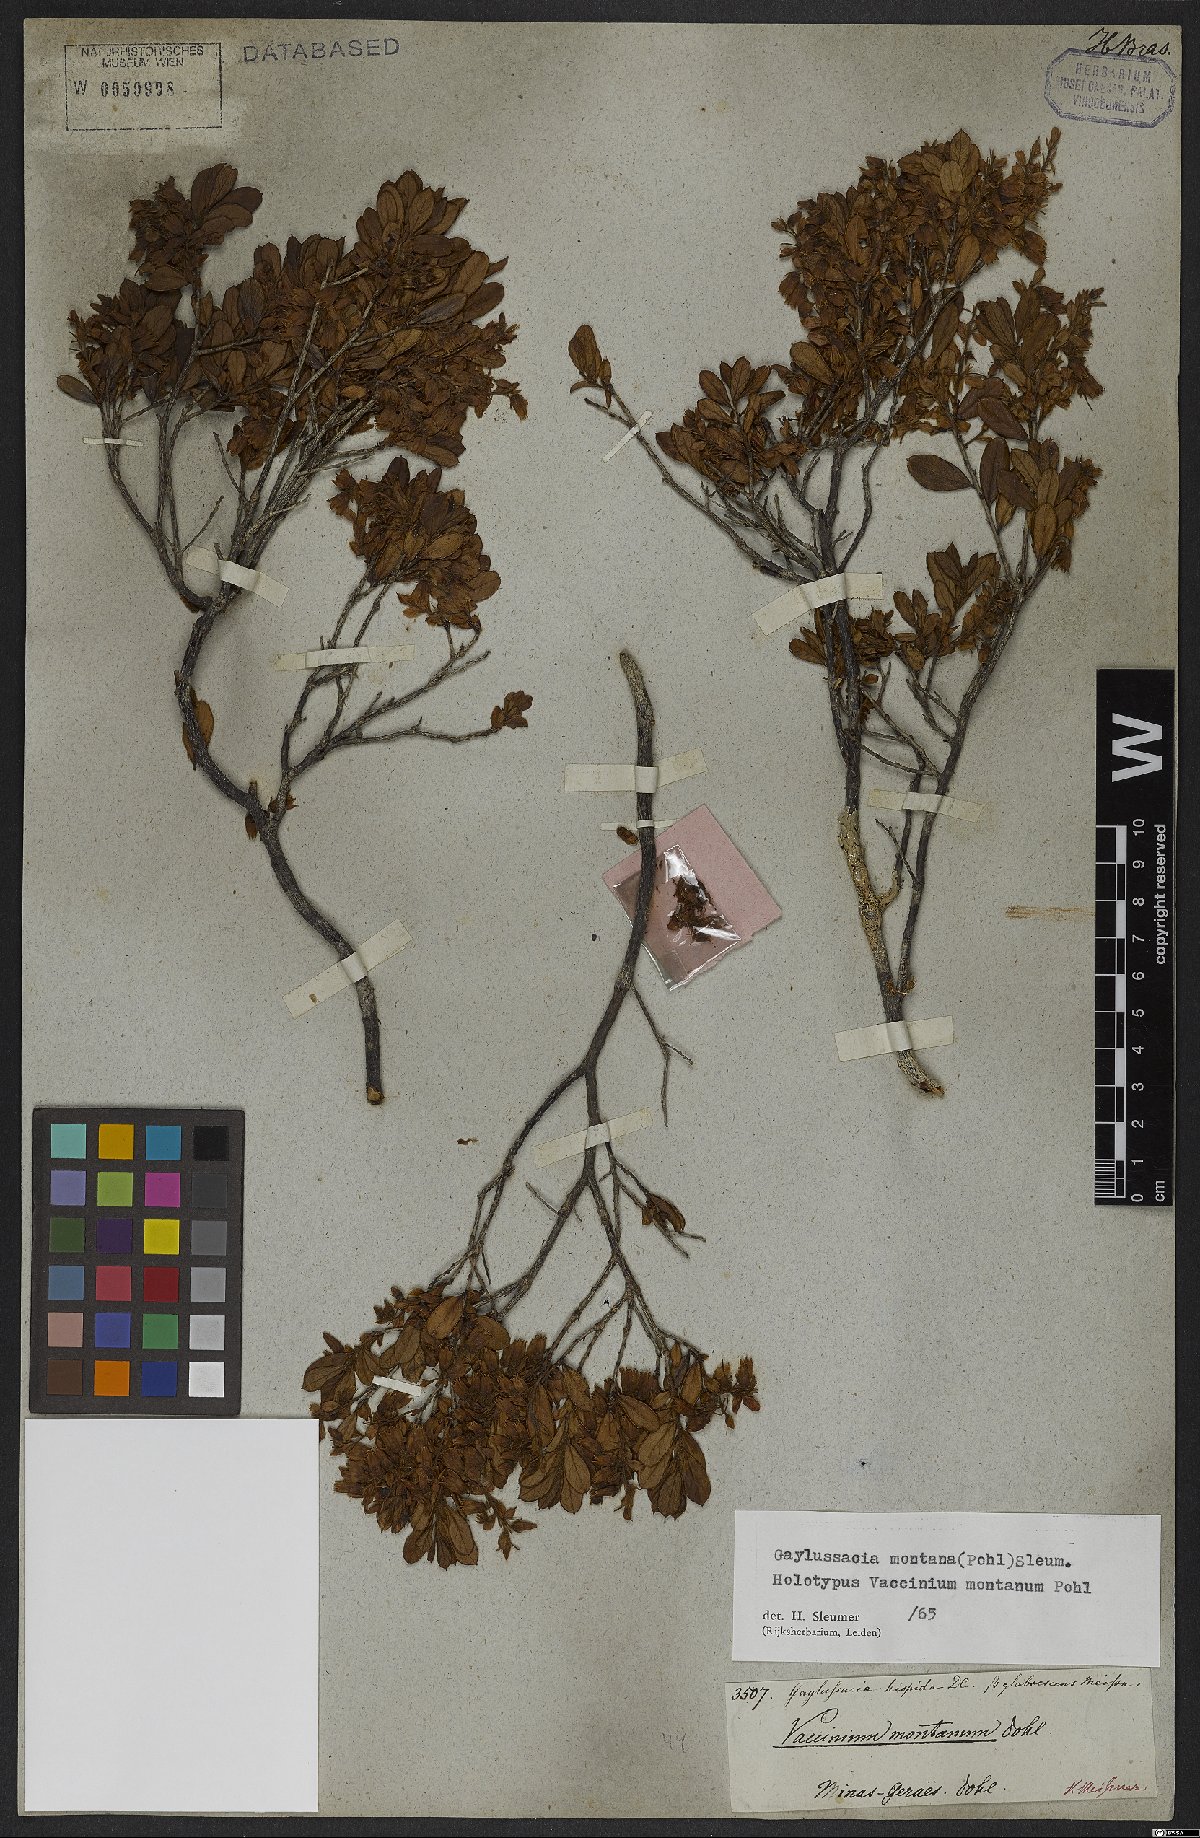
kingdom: Plantae
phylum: Tracheophyta
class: Magnoliopsida
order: Ericales
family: Ericaceae
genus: Gaylussacia
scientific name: Gaylussacia montana
